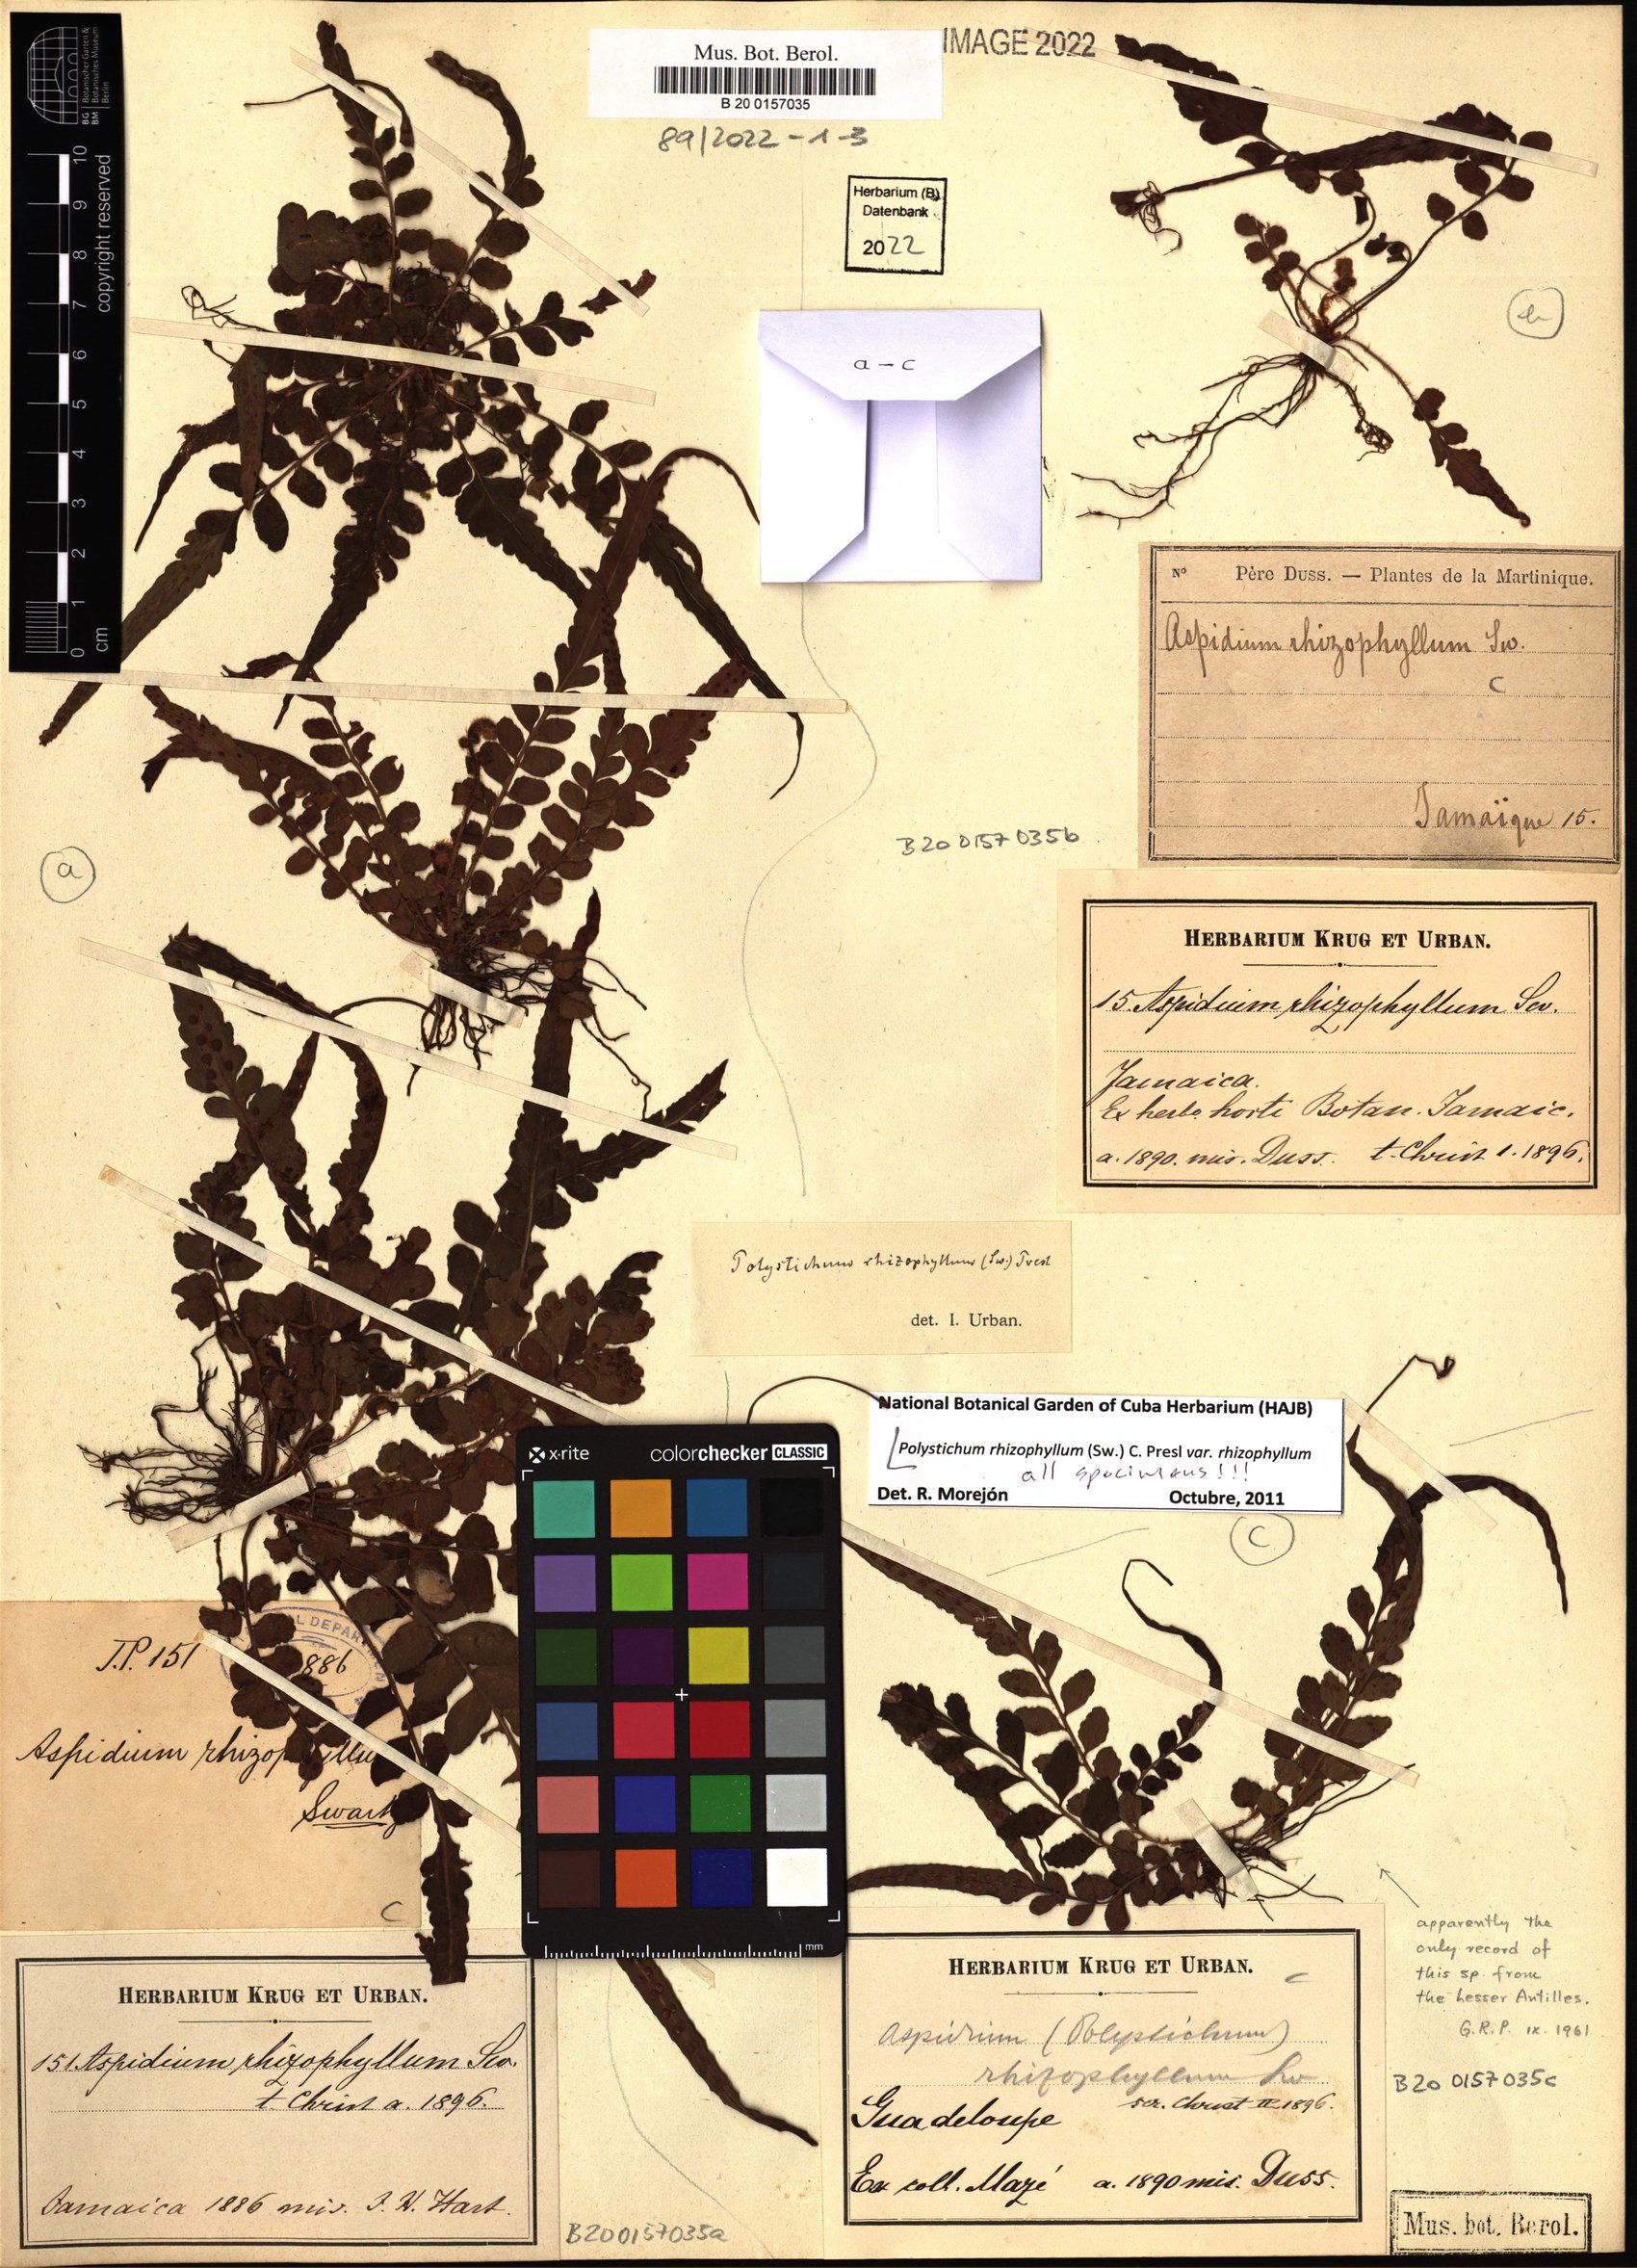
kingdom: Plantae
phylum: Tracheophyta
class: Polypodiopsida
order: Polypodiales
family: Dryopteridaceae
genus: Polystichum
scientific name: Polystichum rhizophyllum
